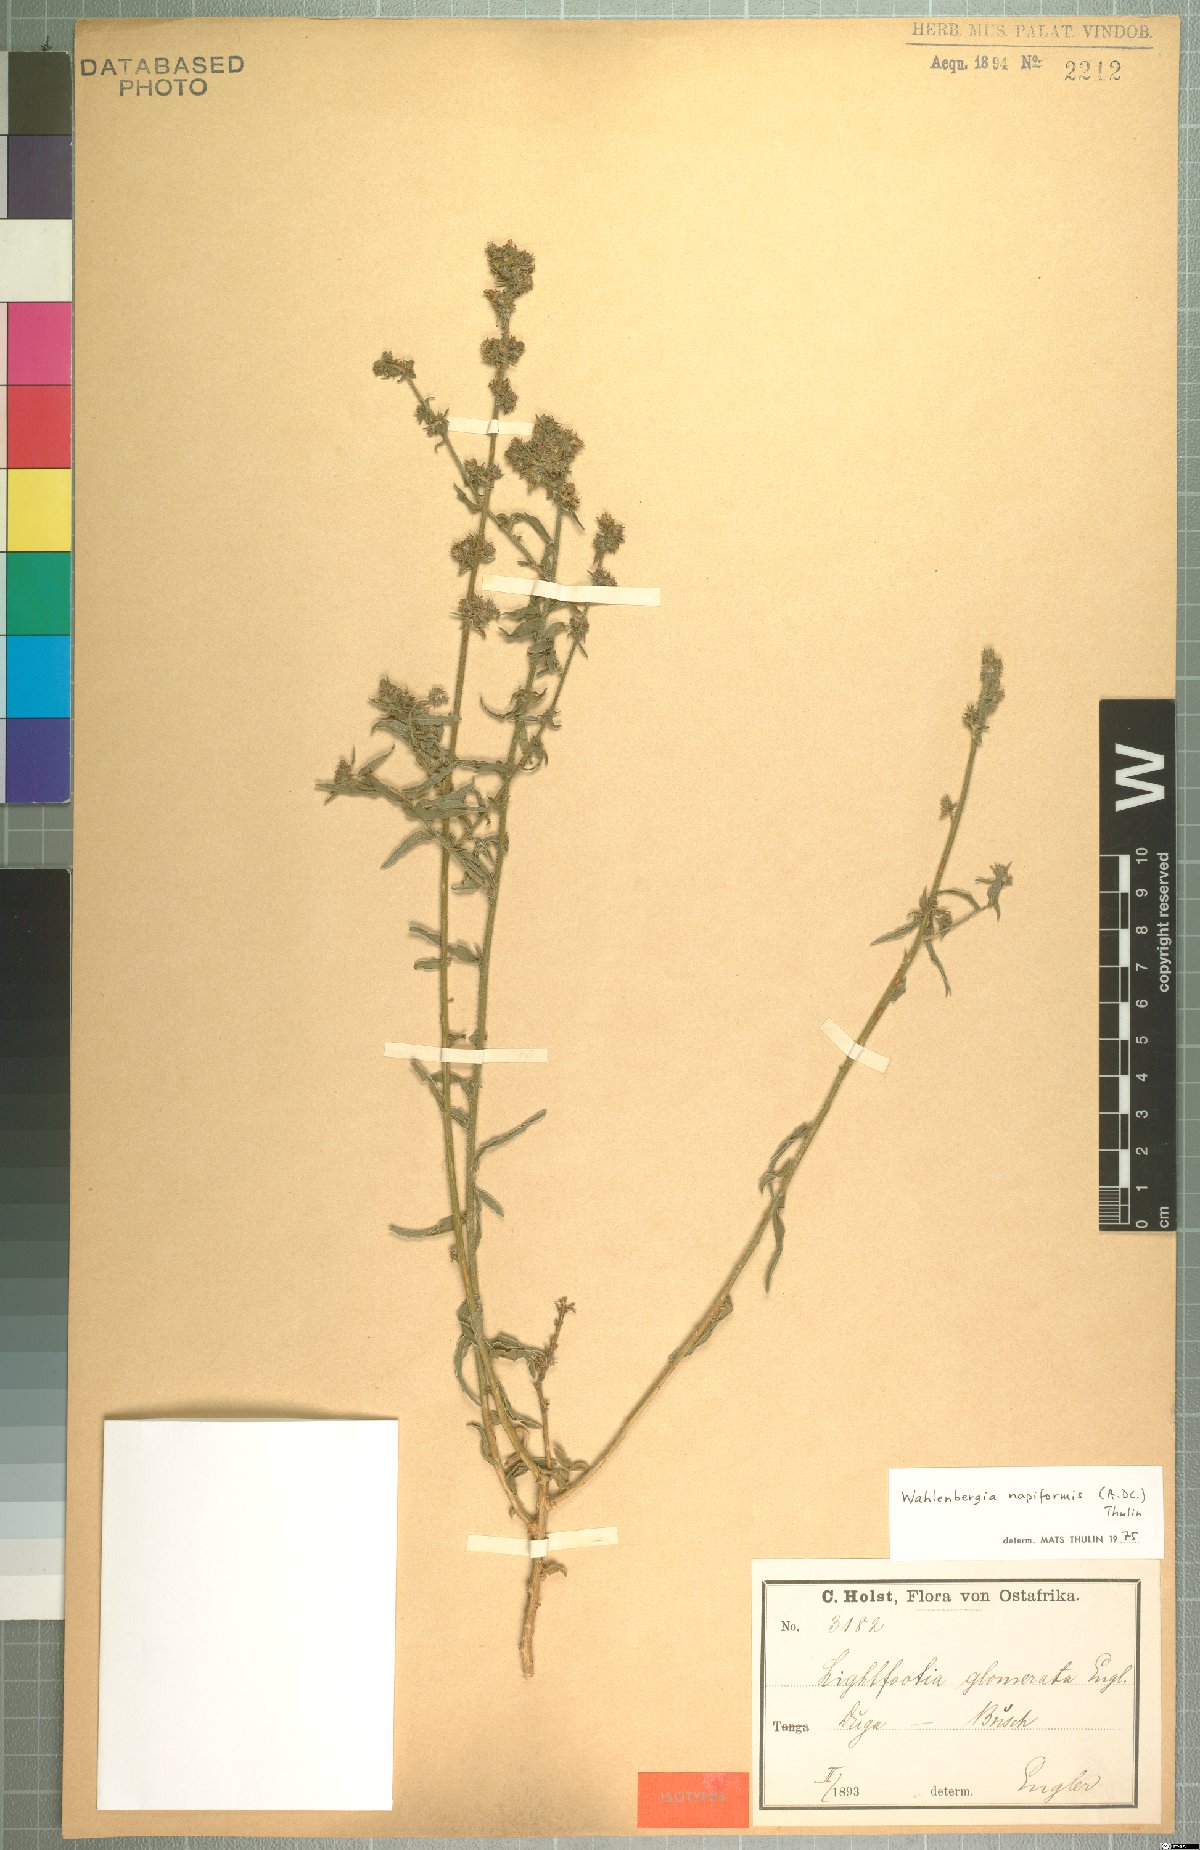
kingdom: Plantae
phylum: Tracheophyta
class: Magnoliopsida
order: Asterales
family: Campanulaceae
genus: Wahlenbergia
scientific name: Wahlenbergia napiformis
